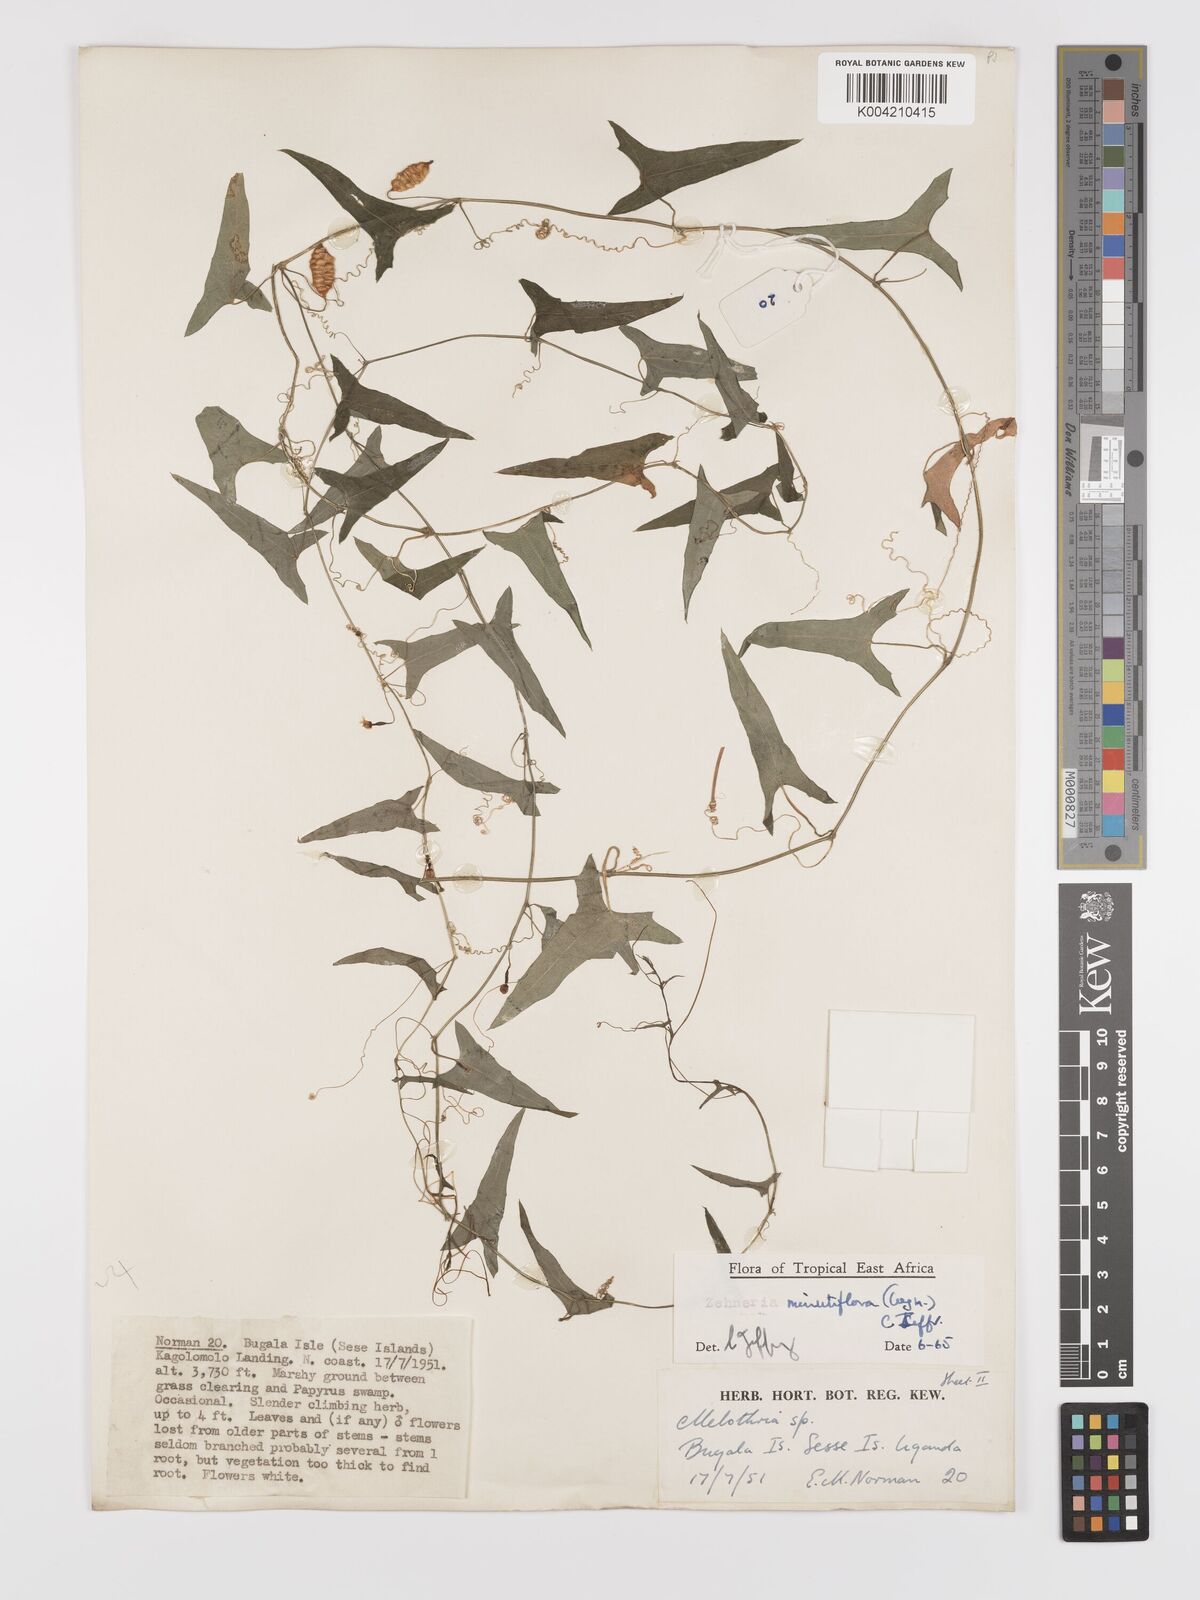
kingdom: Plantae
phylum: Tracheophyta
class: Magnoliopsida
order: Cucurbitales
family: Cucurbitaceae
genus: Zehneria
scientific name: Zehneria minutiflora
